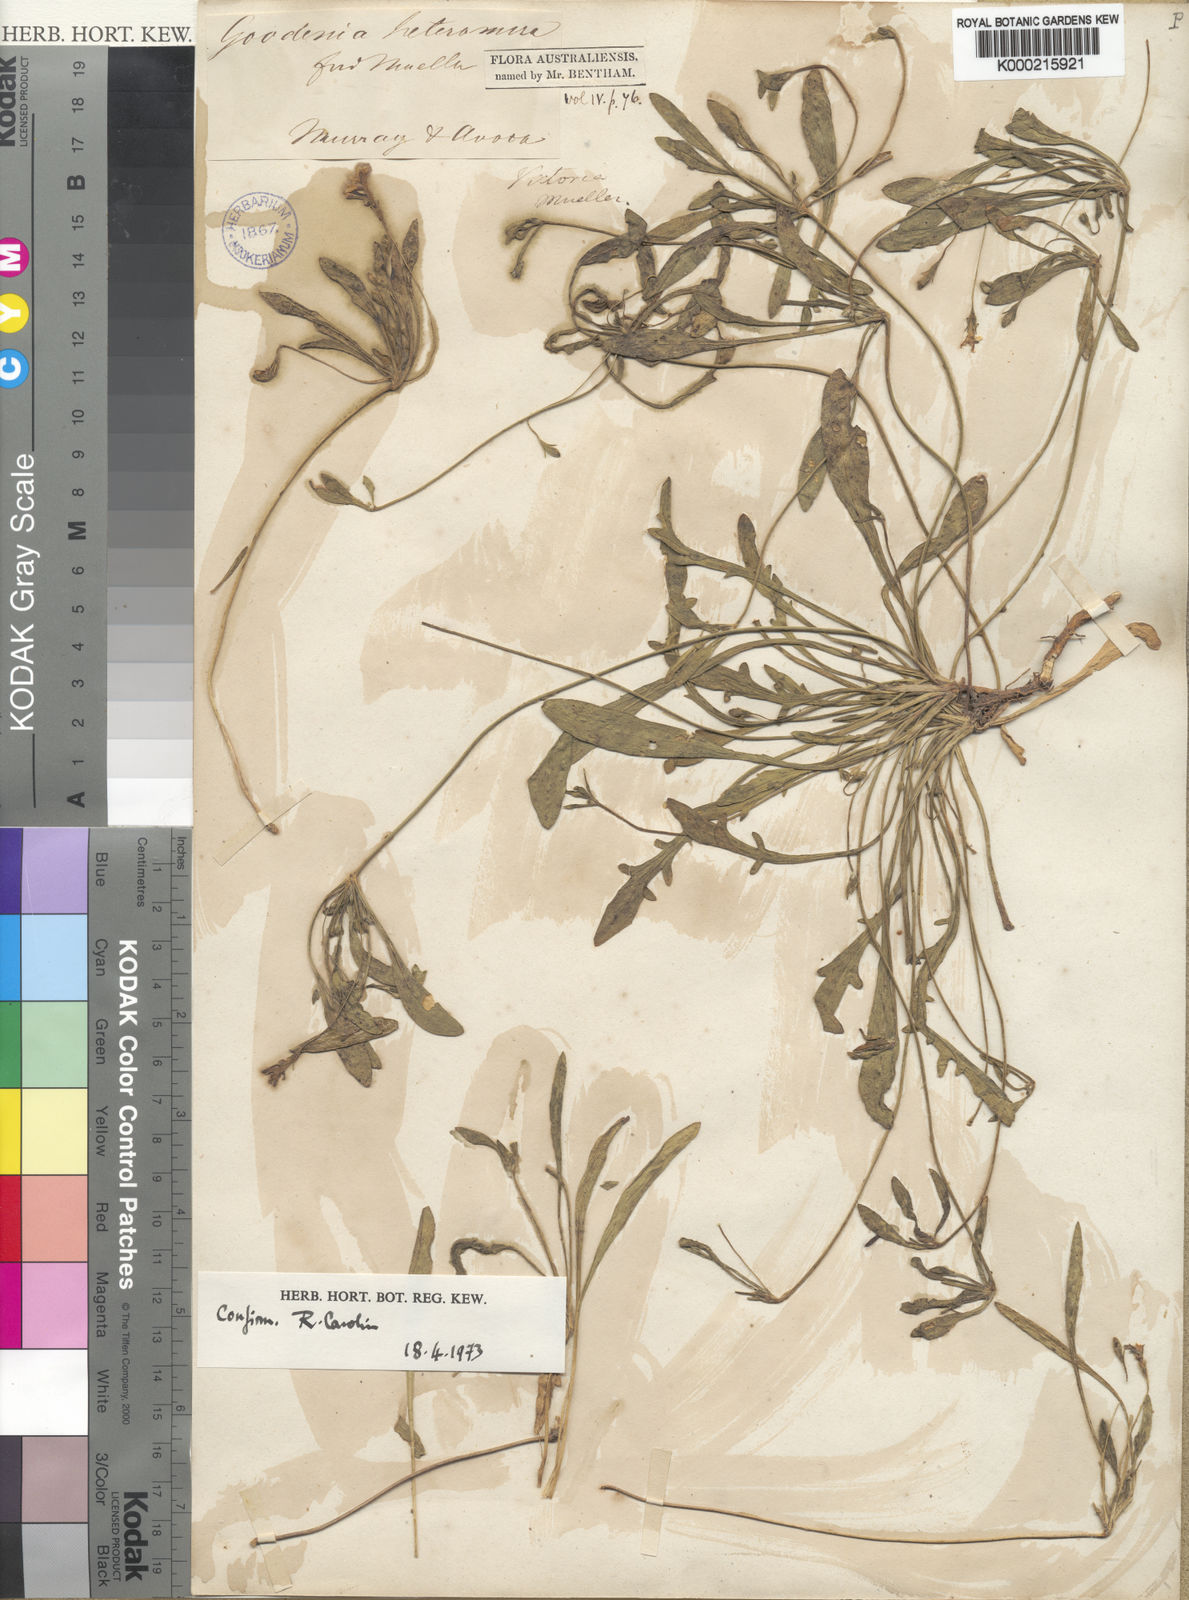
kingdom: Plantae
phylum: Tracheophyta
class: Magnoliopsida
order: Asterales
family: Goodeniaceae
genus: Goodenia
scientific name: Goodenia heteromera
